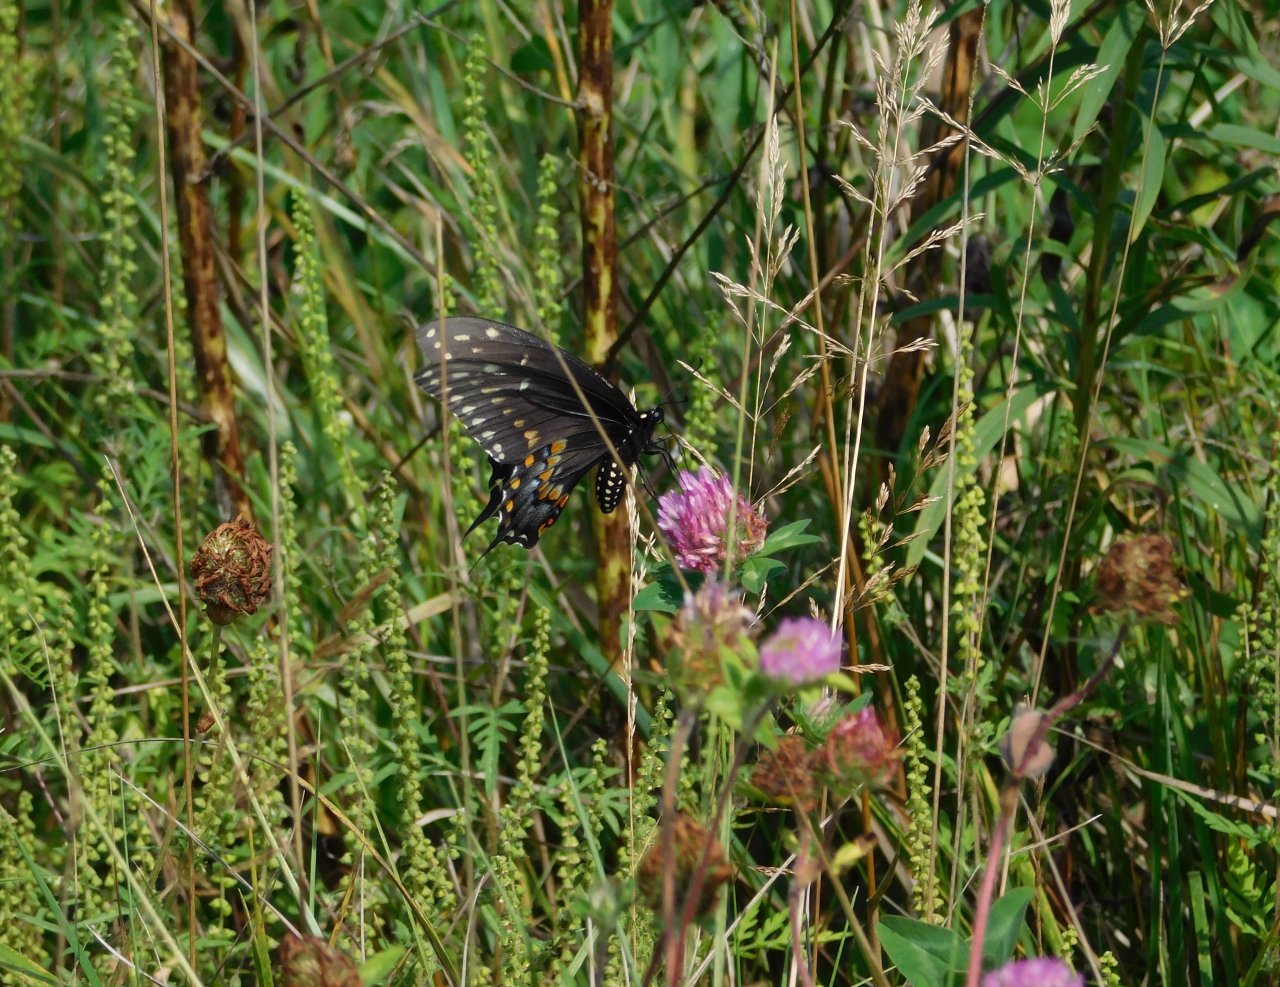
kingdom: Animalia
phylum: Arthropoda
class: Insecta
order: Lepidoptera
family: Papilionidae
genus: Papilio
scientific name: Papilio polyxenes
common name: Black Swallowtail
